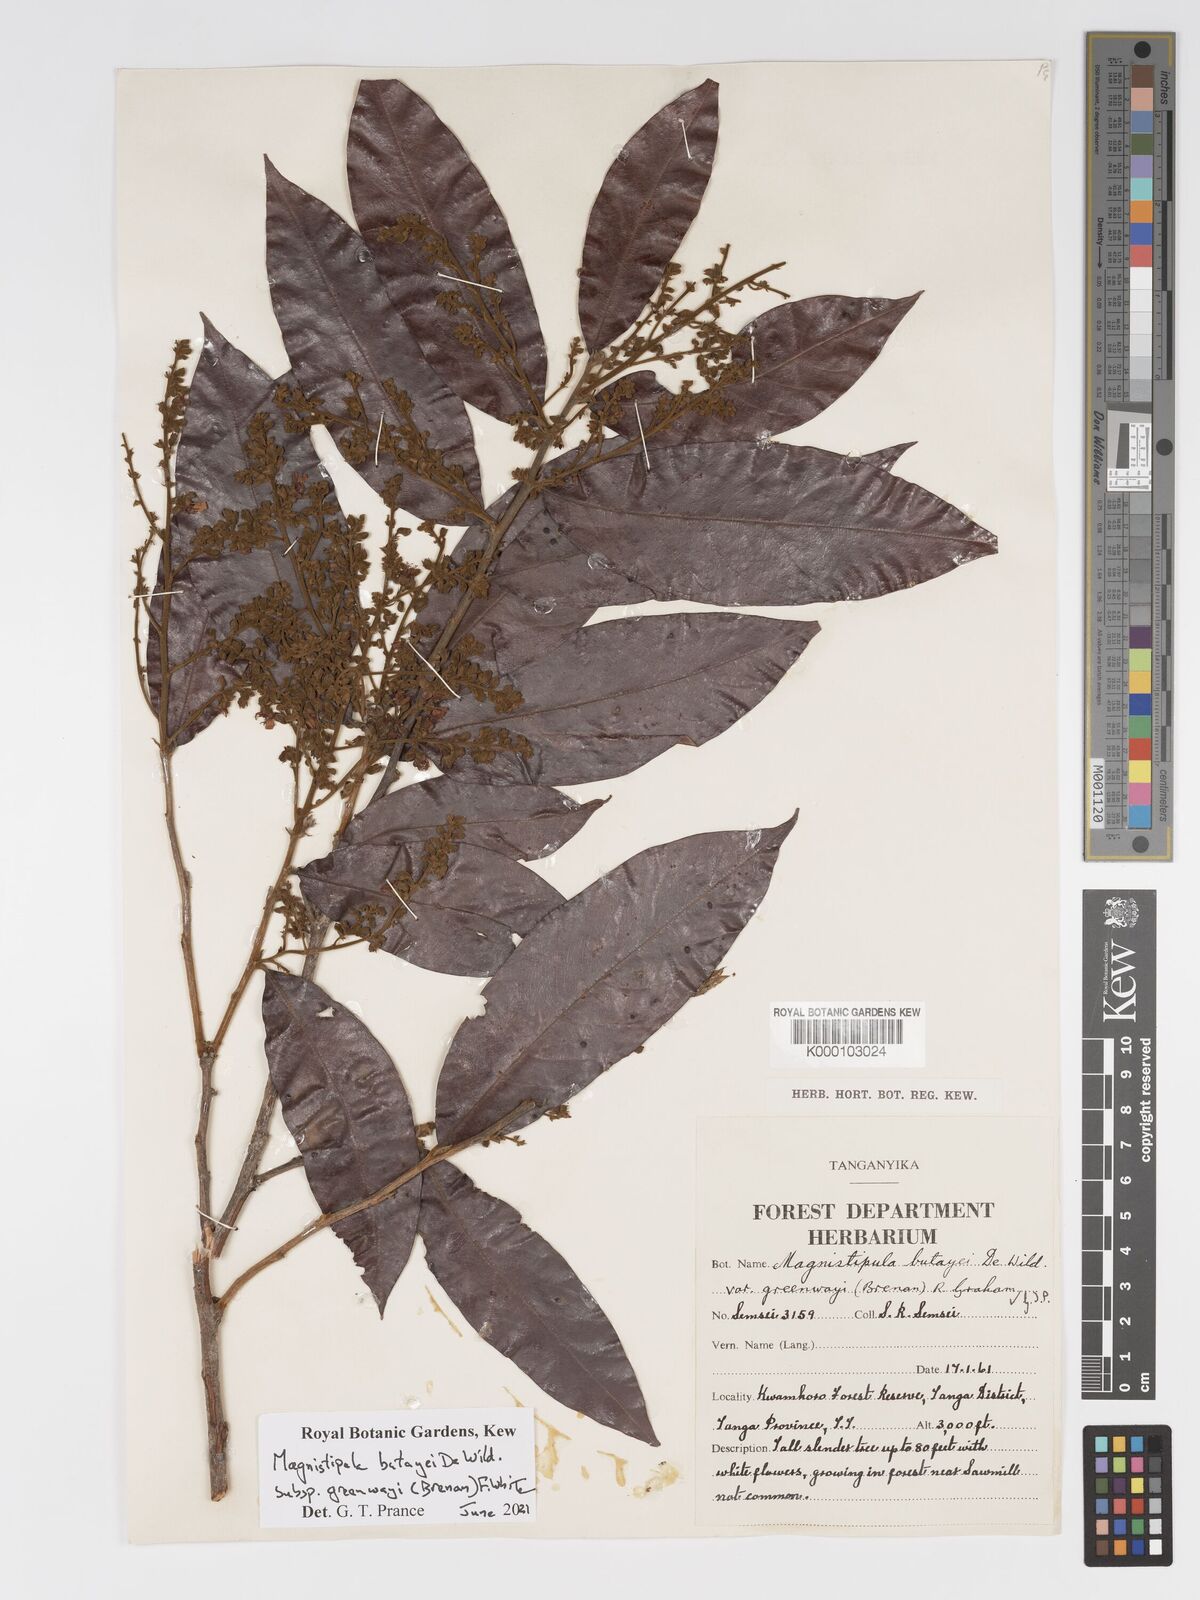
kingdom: Plantae
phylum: Tracheophyta
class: Magnoliopsida
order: Malpighiales
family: Chrysobalanaceae
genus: Magnistipula
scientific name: Magnistipula butayei
